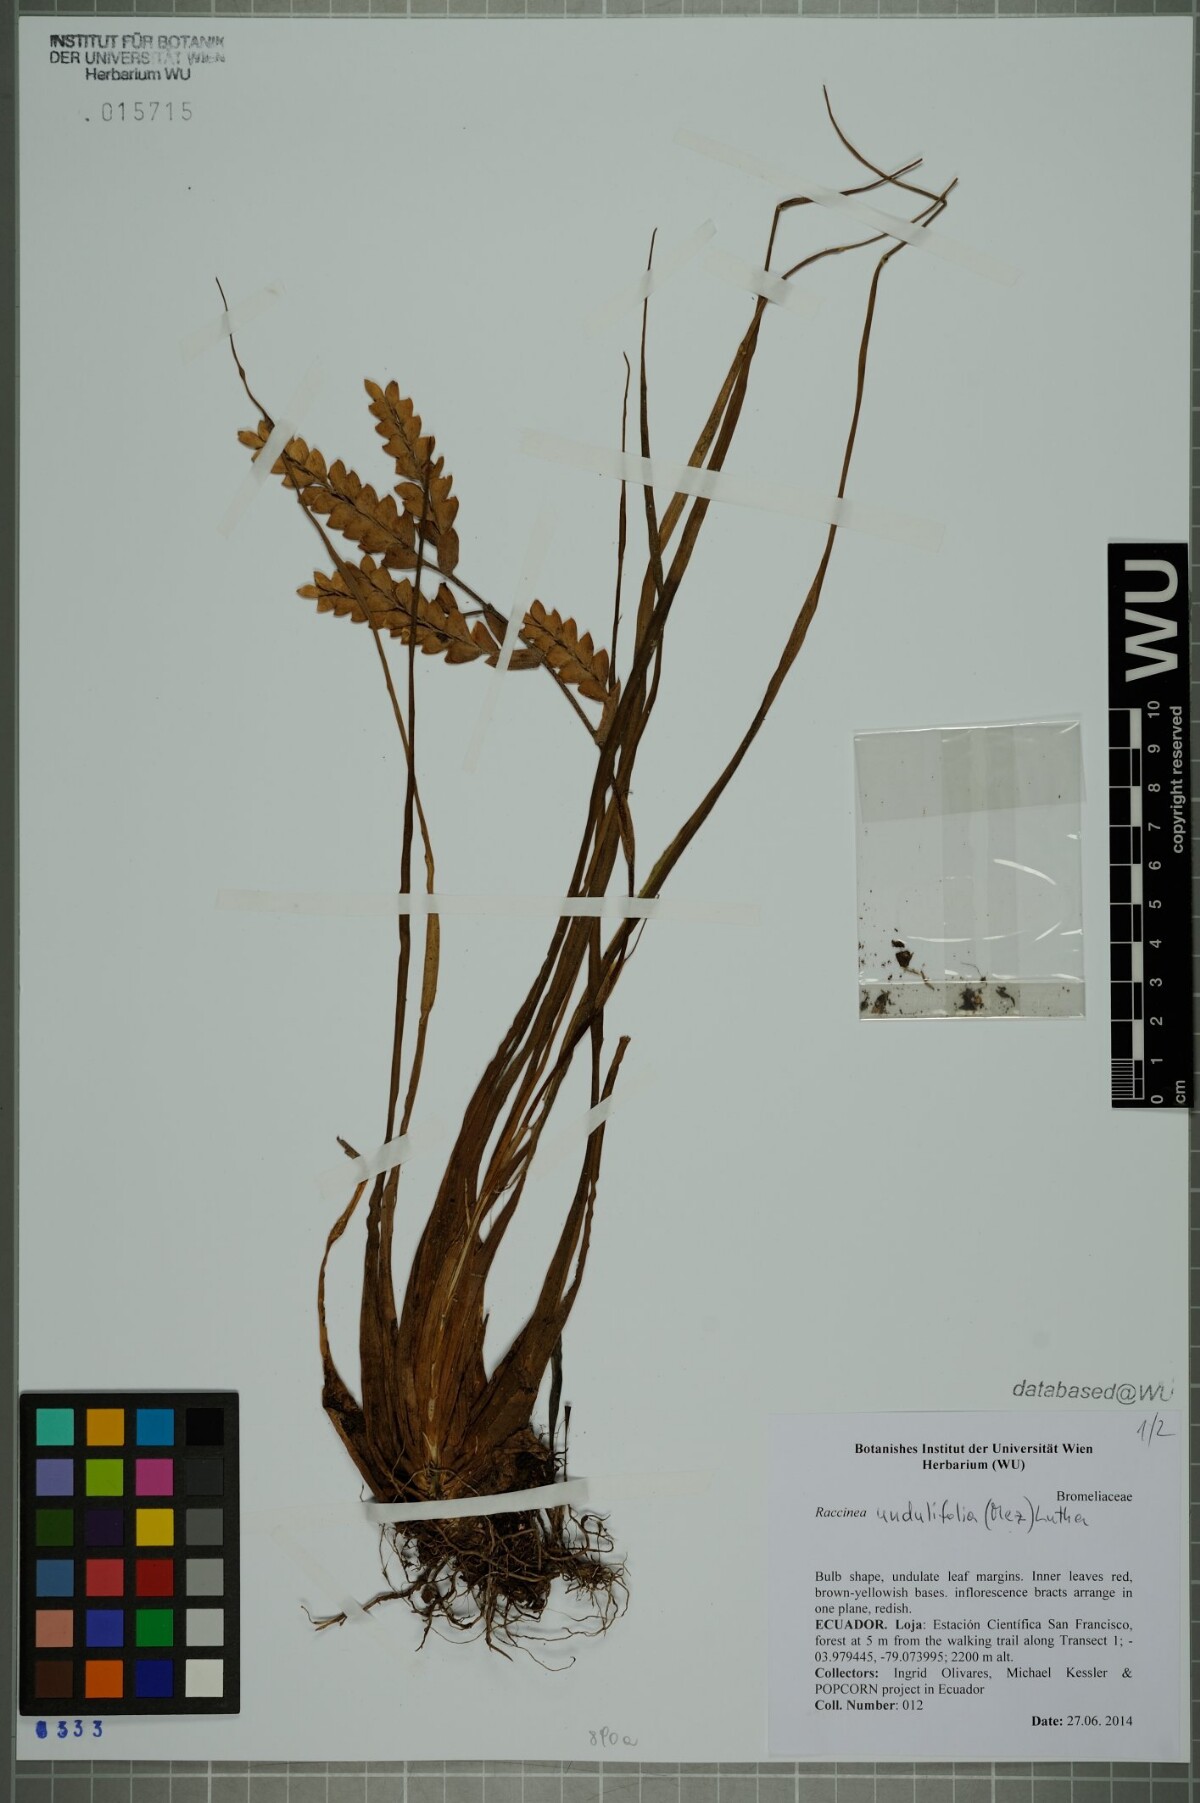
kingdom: Plantae
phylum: Tracheophyta
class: Liliopsida
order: Poales
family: Bromeliaceae
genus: Racinaea
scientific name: Racinaea undulifolia
